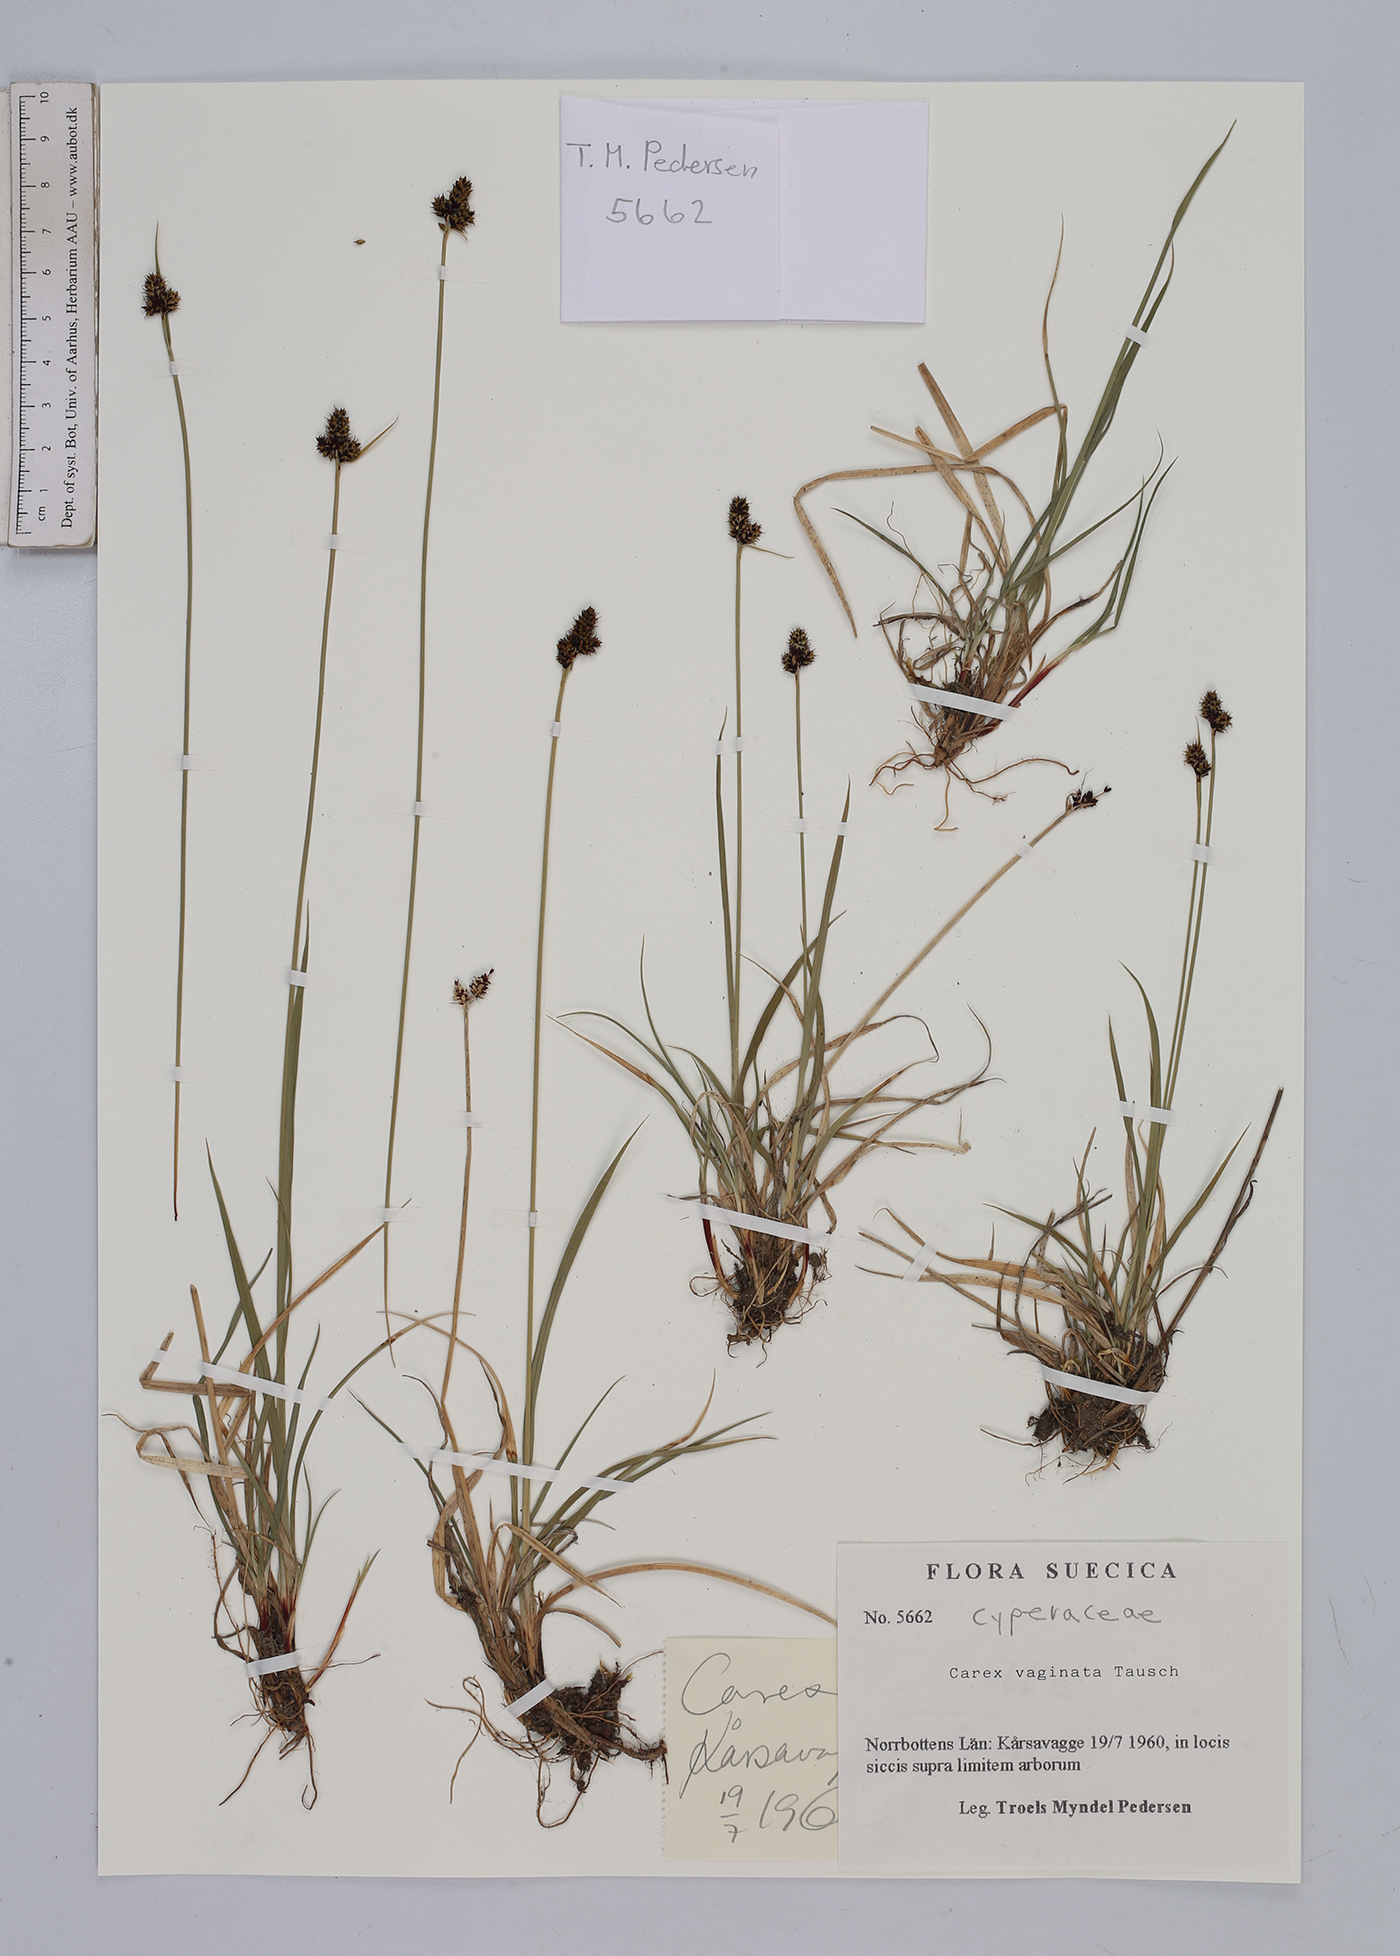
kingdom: Plantae
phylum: Tracheophyta
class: Liliopsida
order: Poales
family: Cyperaceae
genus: Carex
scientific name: Carex vaginata
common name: Sheathed sedge
